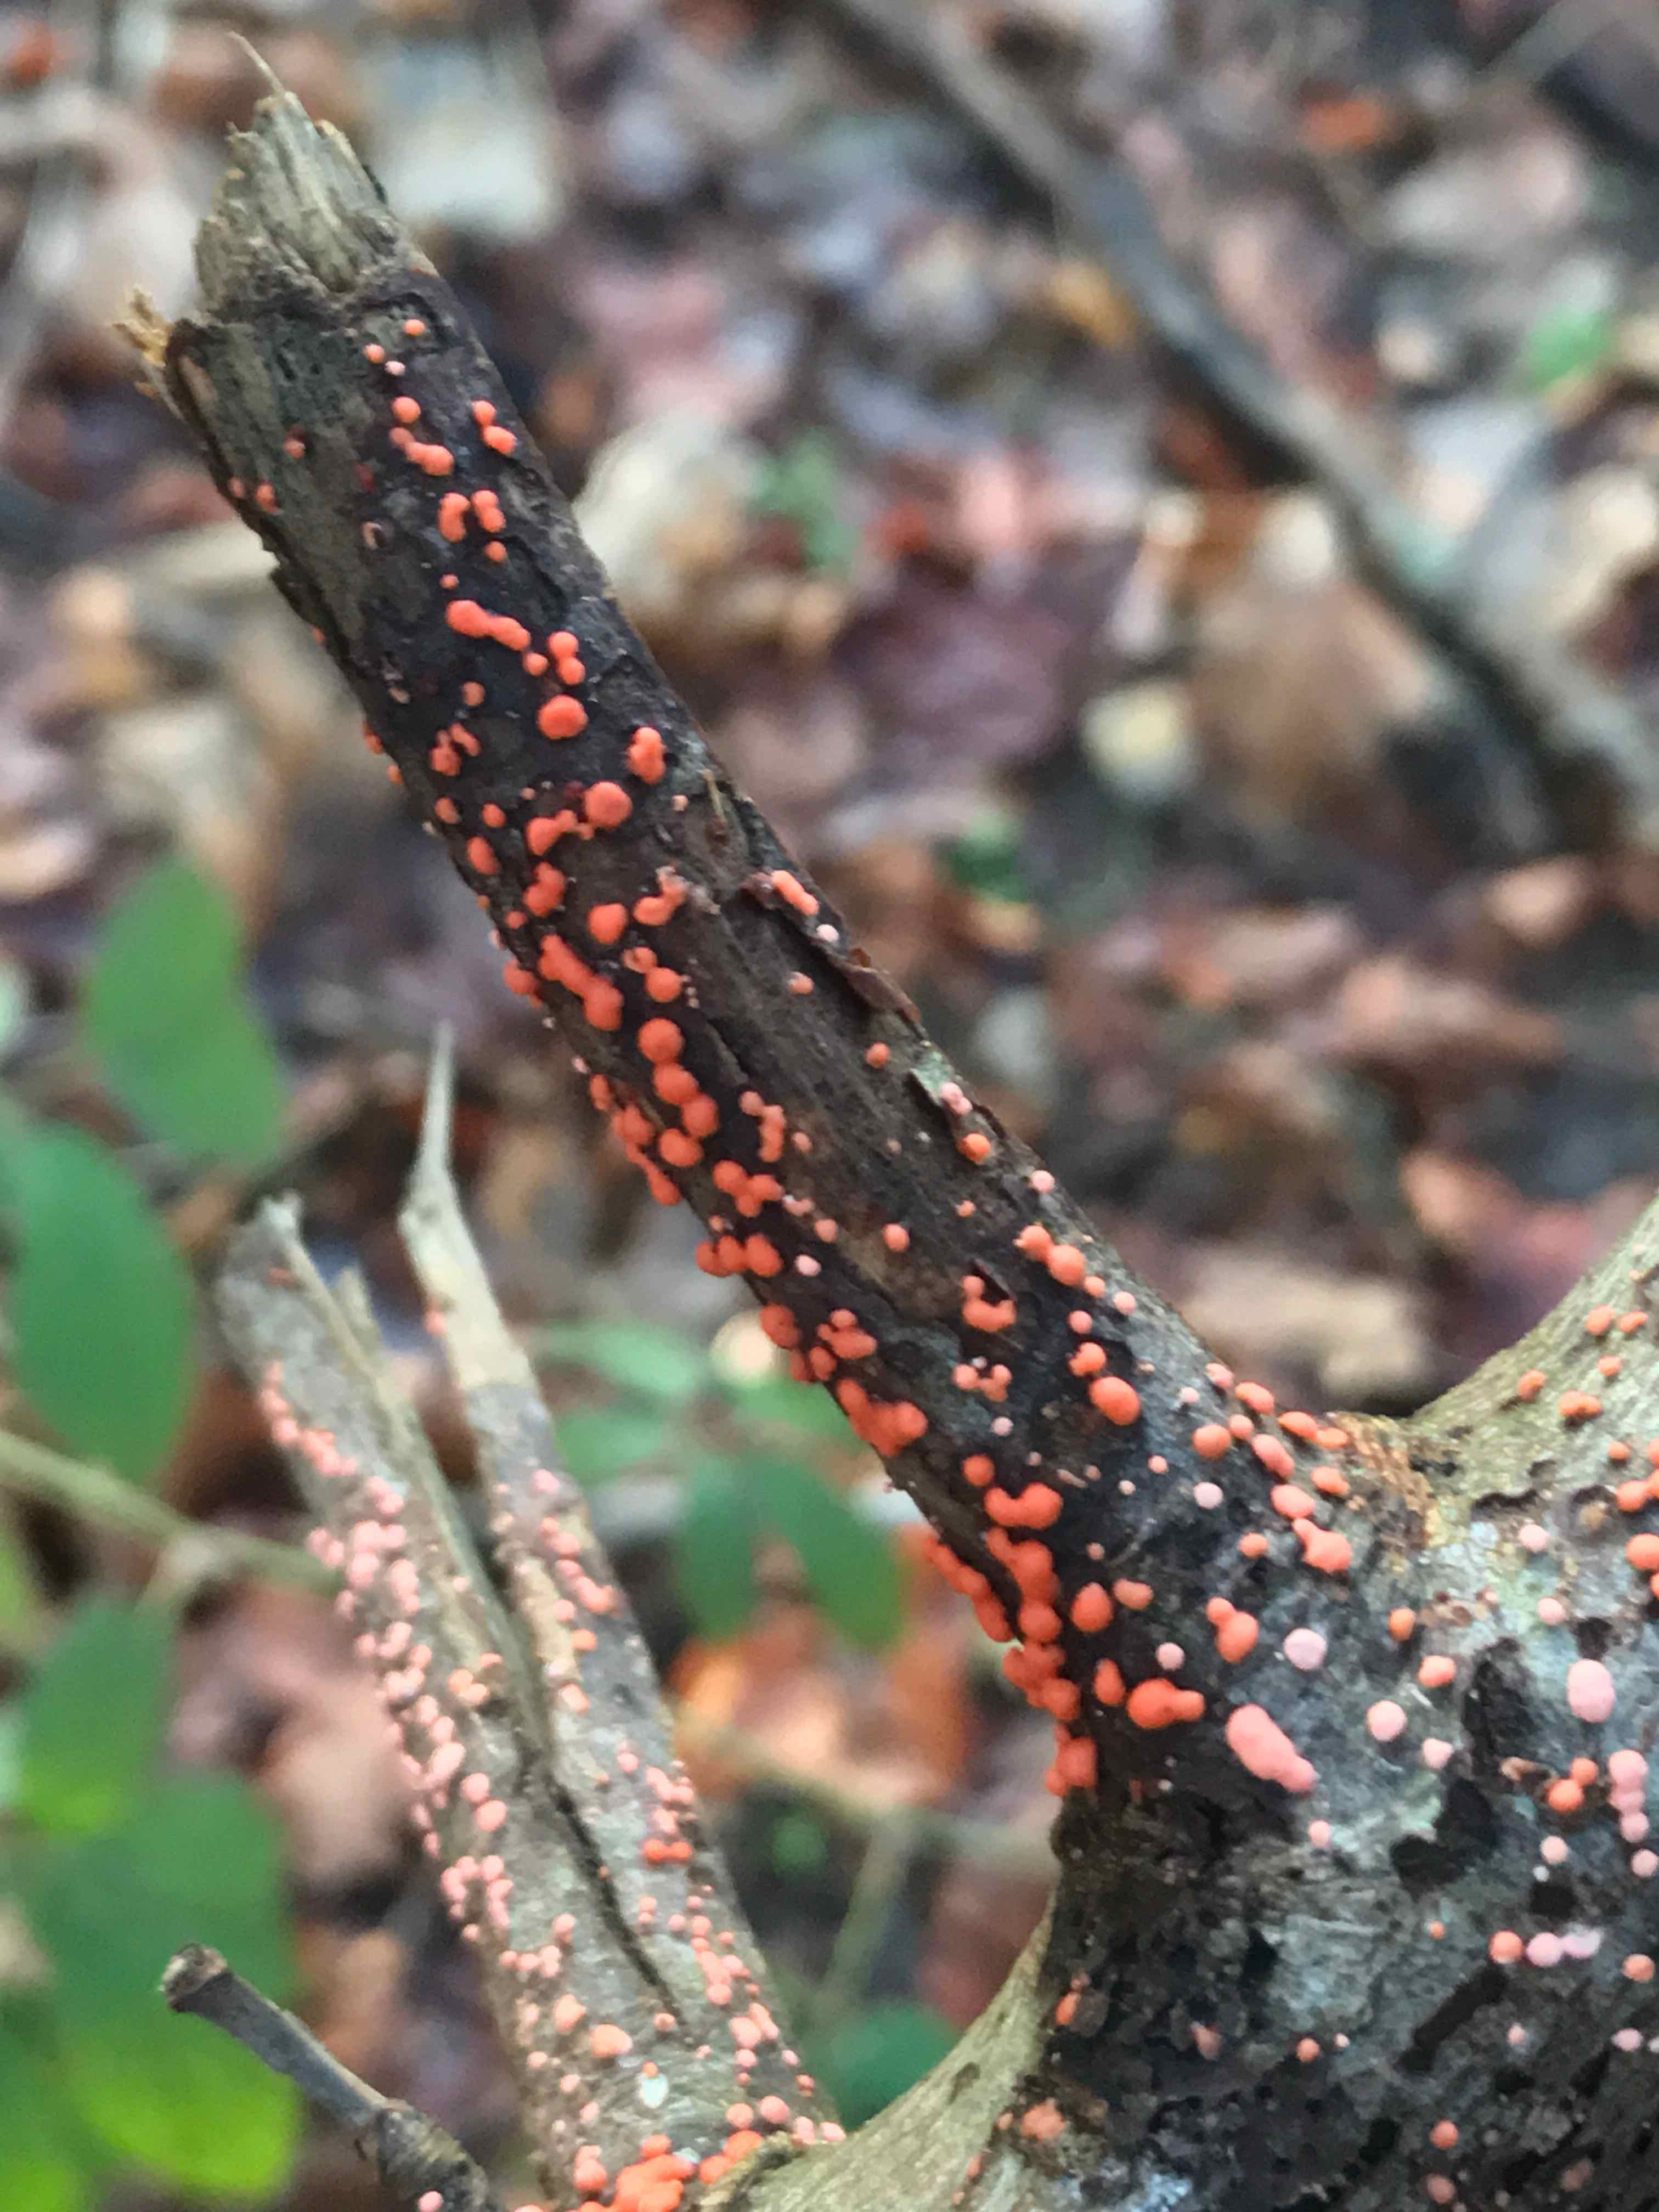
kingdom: Fungi
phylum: Ascomycota
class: Sordariomycetes
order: Hypocreales
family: Nectriaceae
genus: Nectria
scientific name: Nectria cinnabarina
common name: almindelig cinnobersvamp
